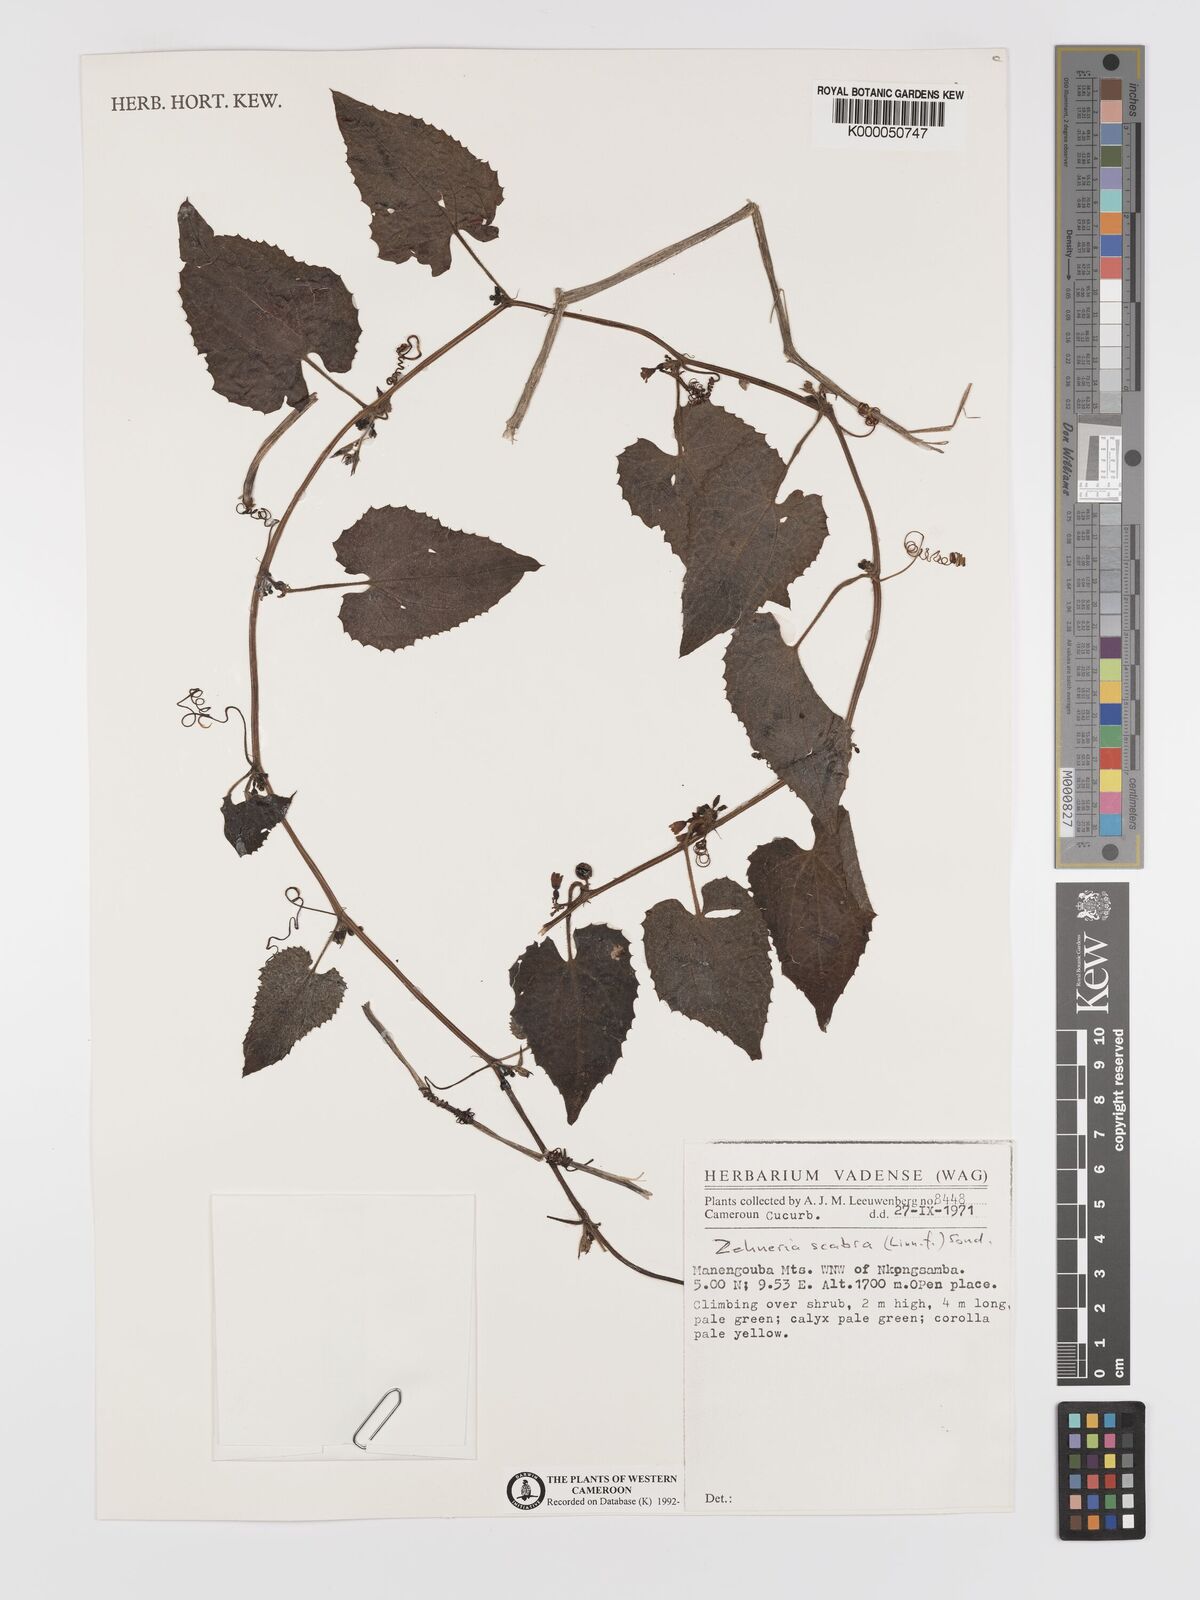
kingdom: Plantae
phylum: Tracheophyta
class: Magnoliopsida
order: Cucurbitales
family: Cucurbitaceae
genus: Zehneria
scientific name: Zehneria scabra
